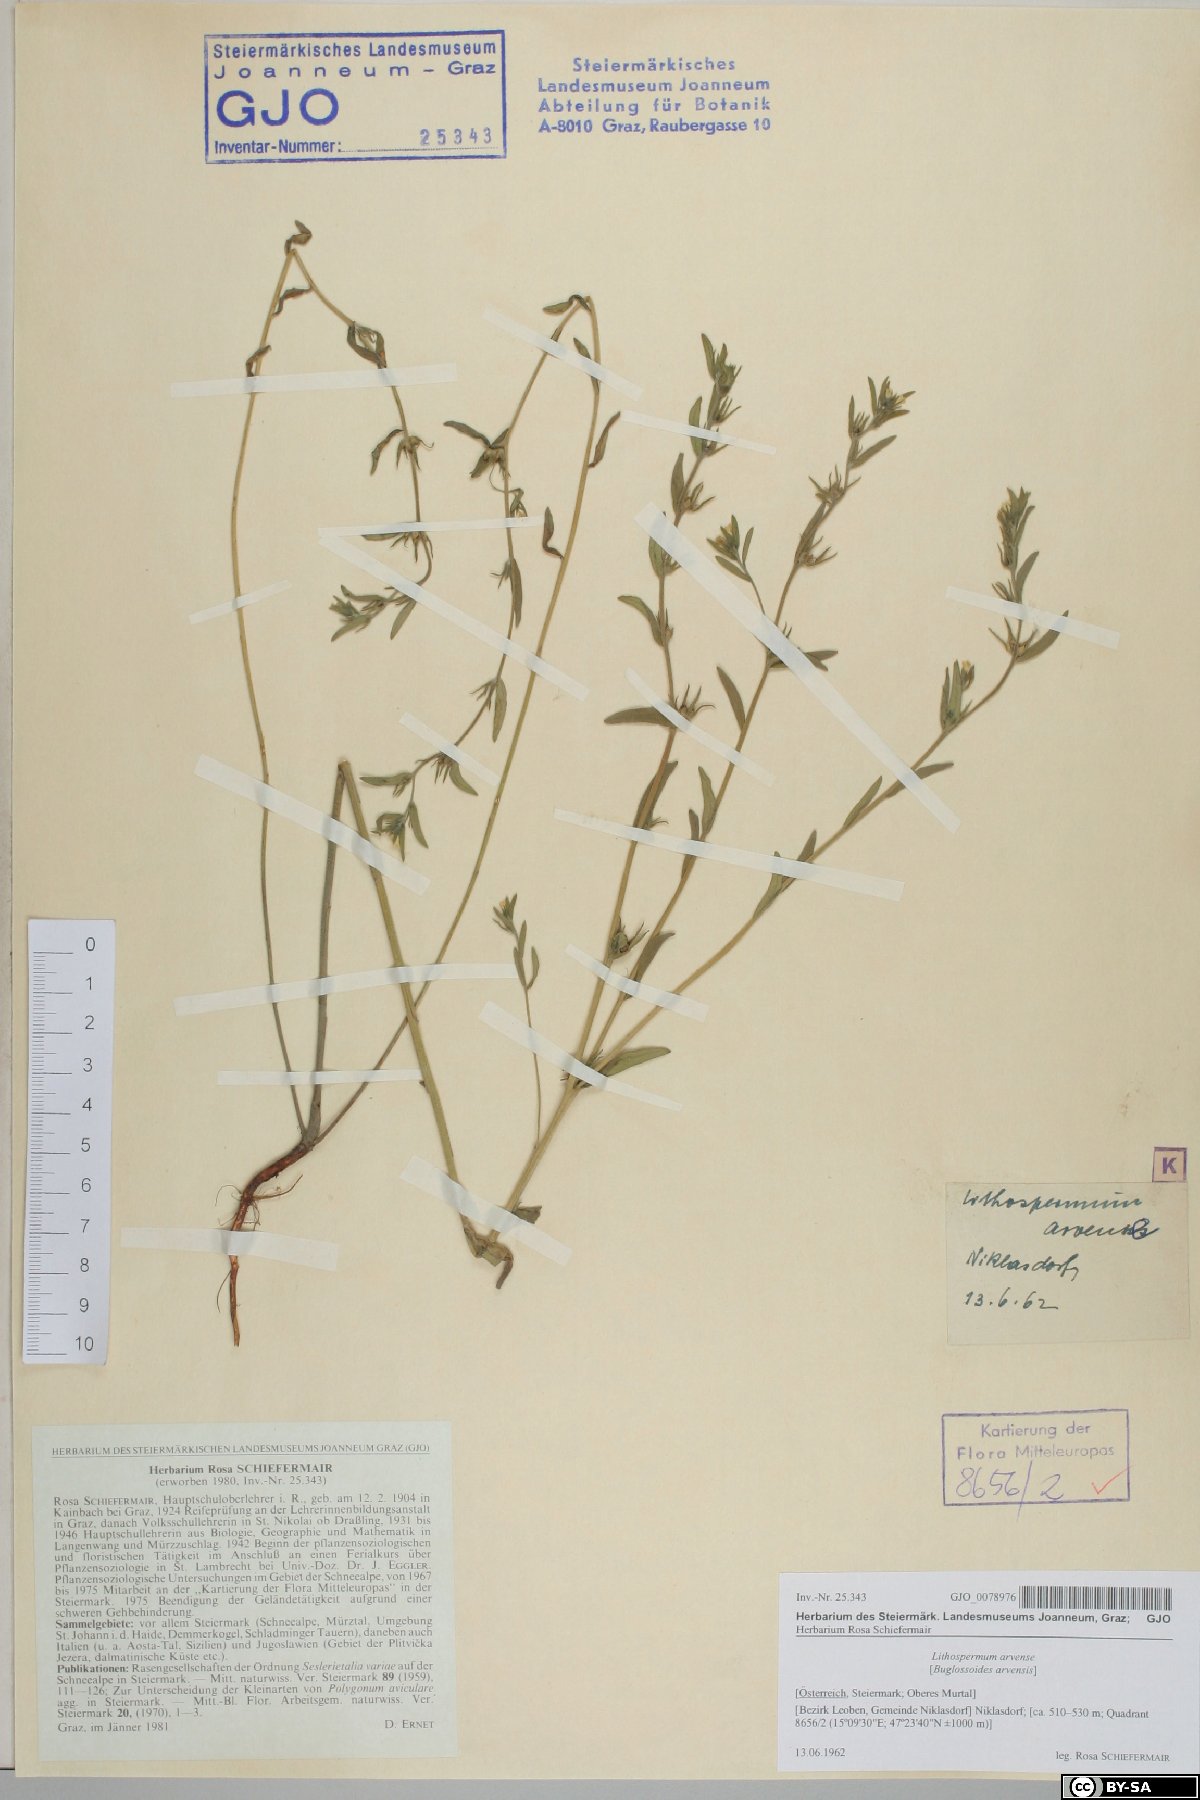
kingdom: Plantae
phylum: Tracheophyta
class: Magnoliopsida
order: Boraginales
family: Boraginaceae
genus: Buglossoides
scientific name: Buglossoides arvensis
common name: Corn gromwell
